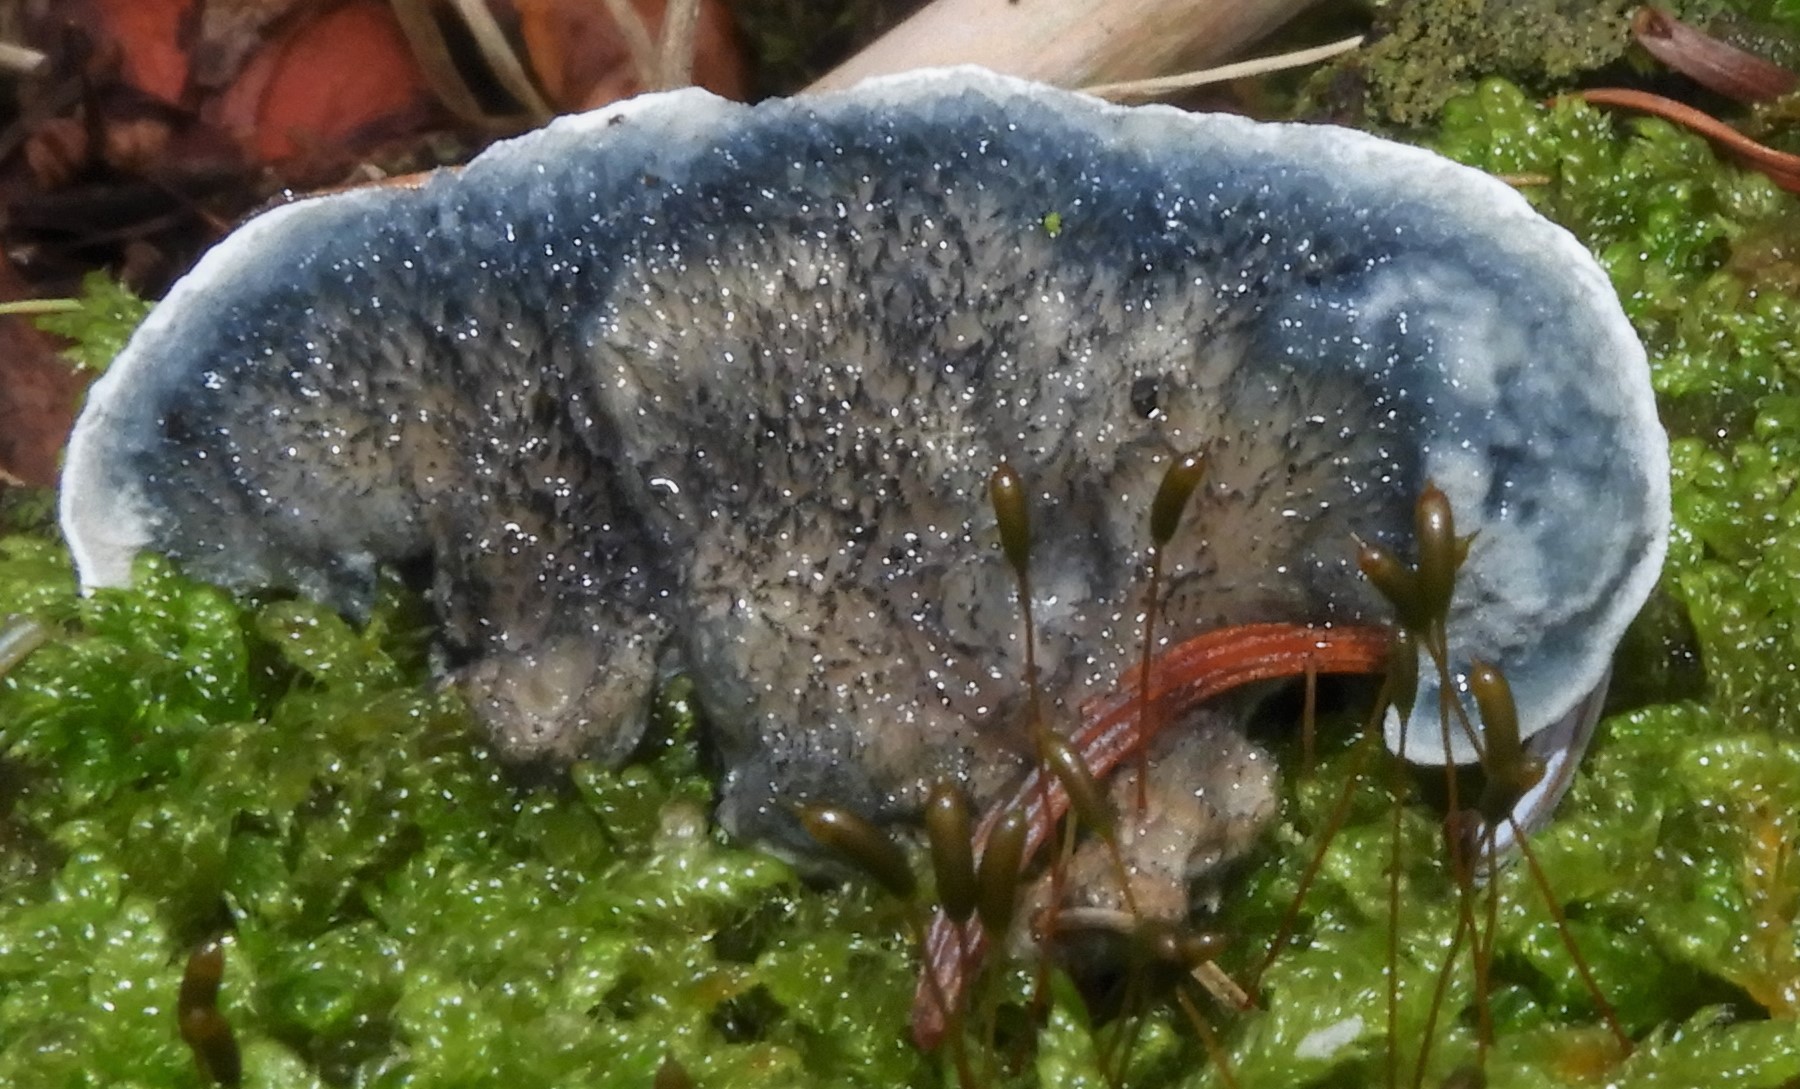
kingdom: Fungi
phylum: Basidiomycota
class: Agaricomycetes
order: Polyporales
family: Polyporaceae
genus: Cyanosporus
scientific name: Cyanosporus alni
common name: blegblå kødporesvamp
